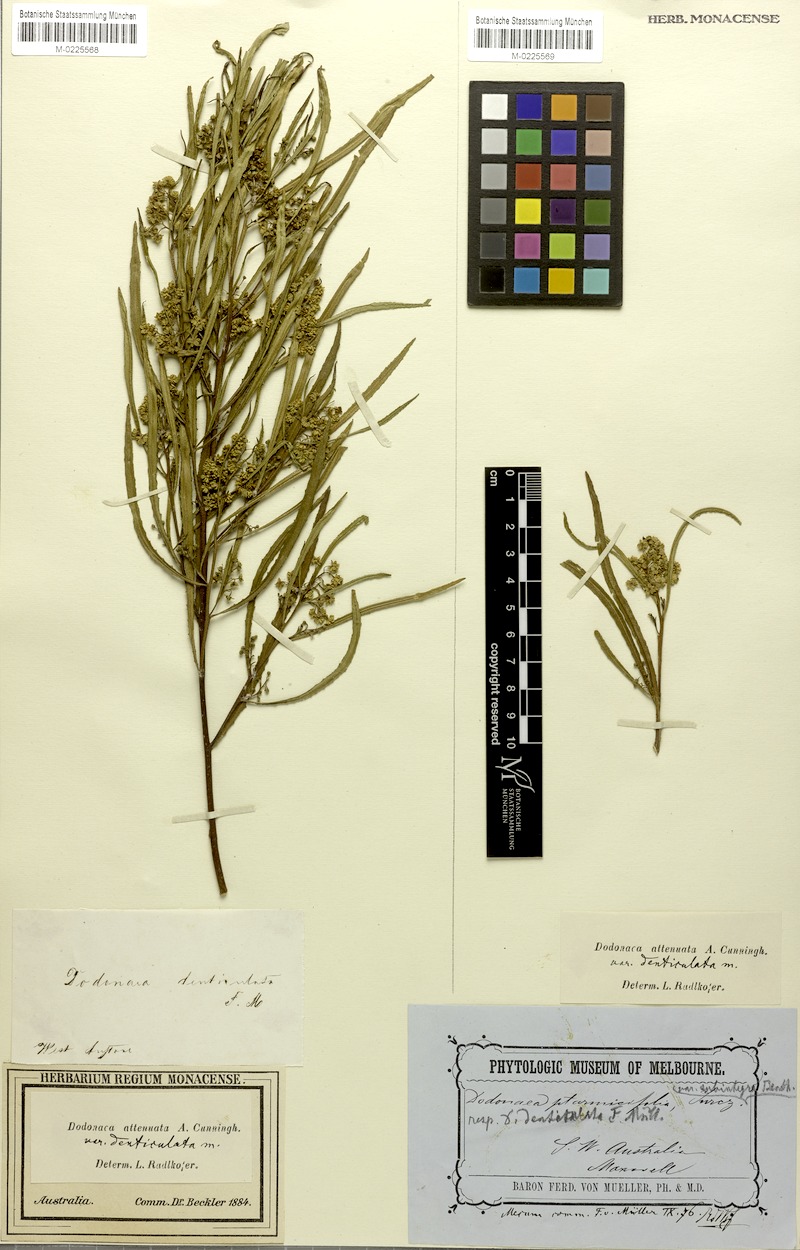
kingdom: Plantae
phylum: Tracheophyta
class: Magnoliopsida
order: Sapindales
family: Sapindaceae
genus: Dodonaea
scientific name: Dodonaea viscosa
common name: Hopbush
